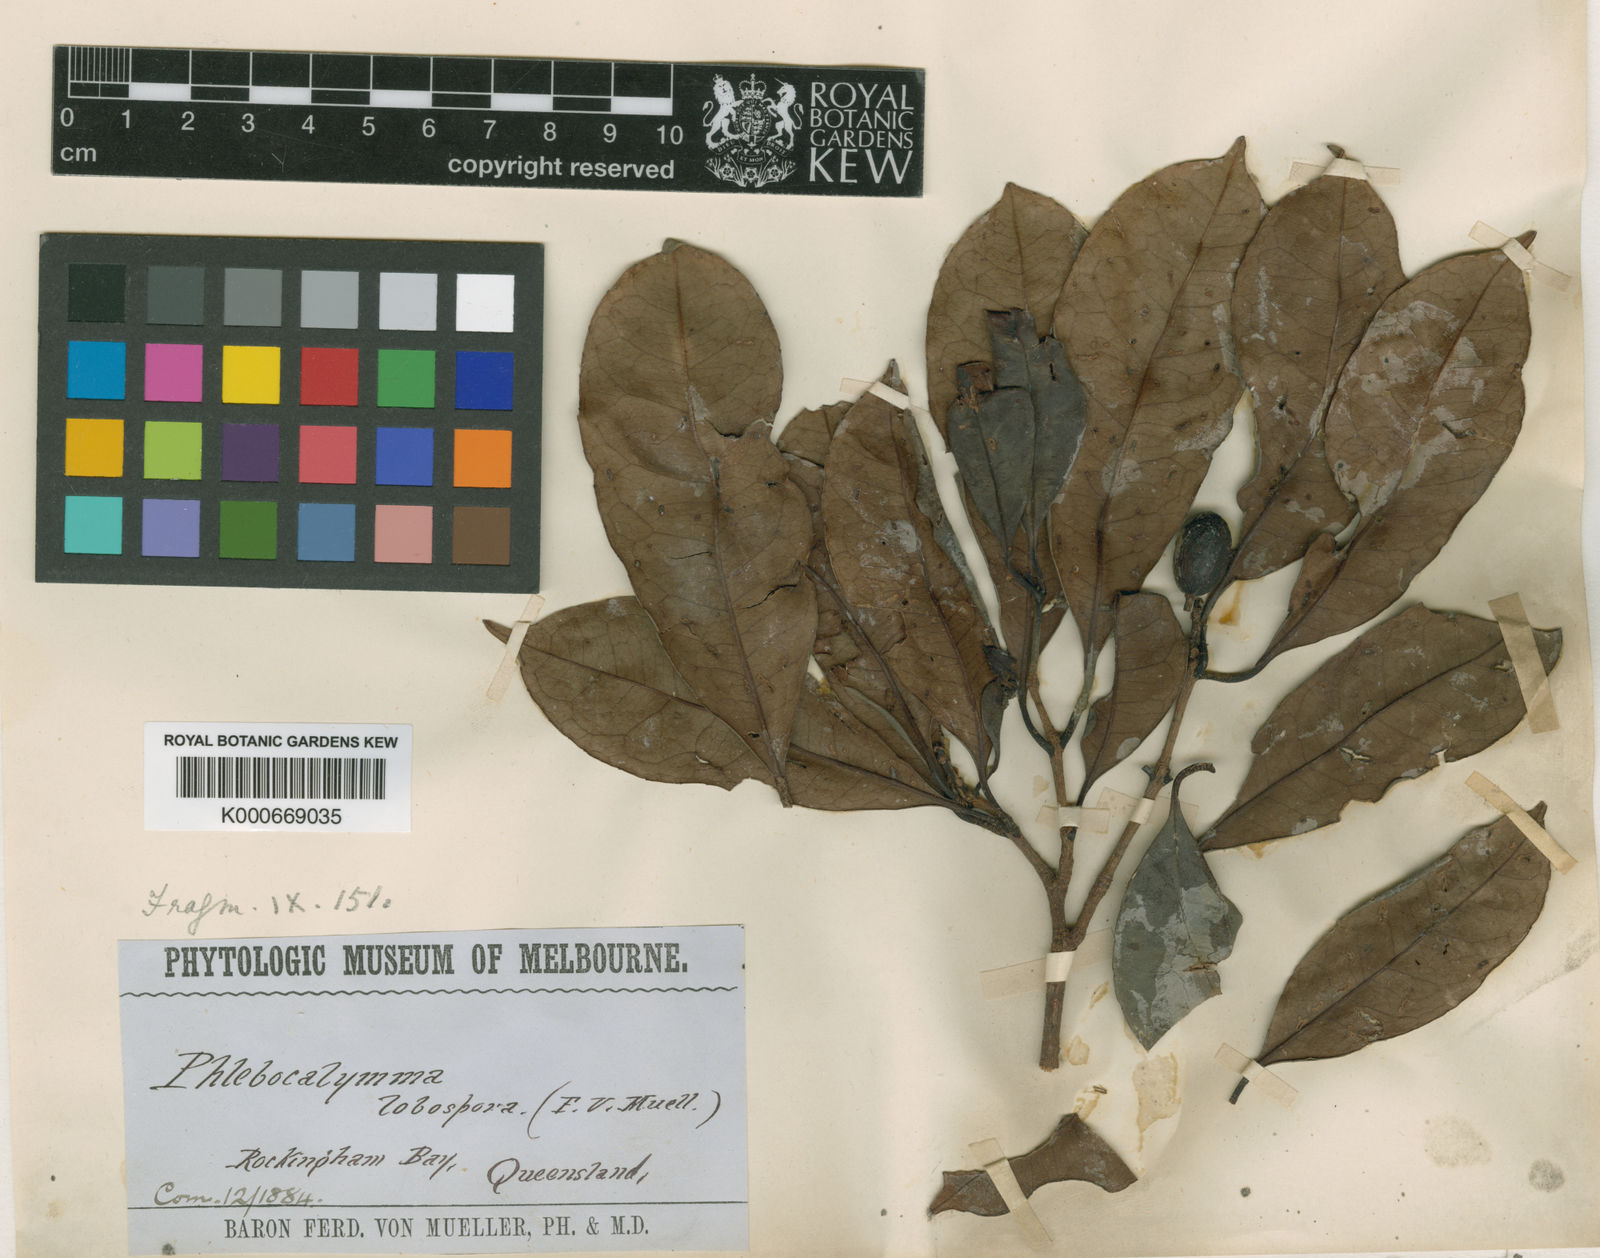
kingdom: Plantae
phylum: Tracheophyta
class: Magnoliopsida
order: Paracryphiales
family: Paracryphiaceae
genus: Sphenostemon
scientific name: Sphenostemon lobosporus
